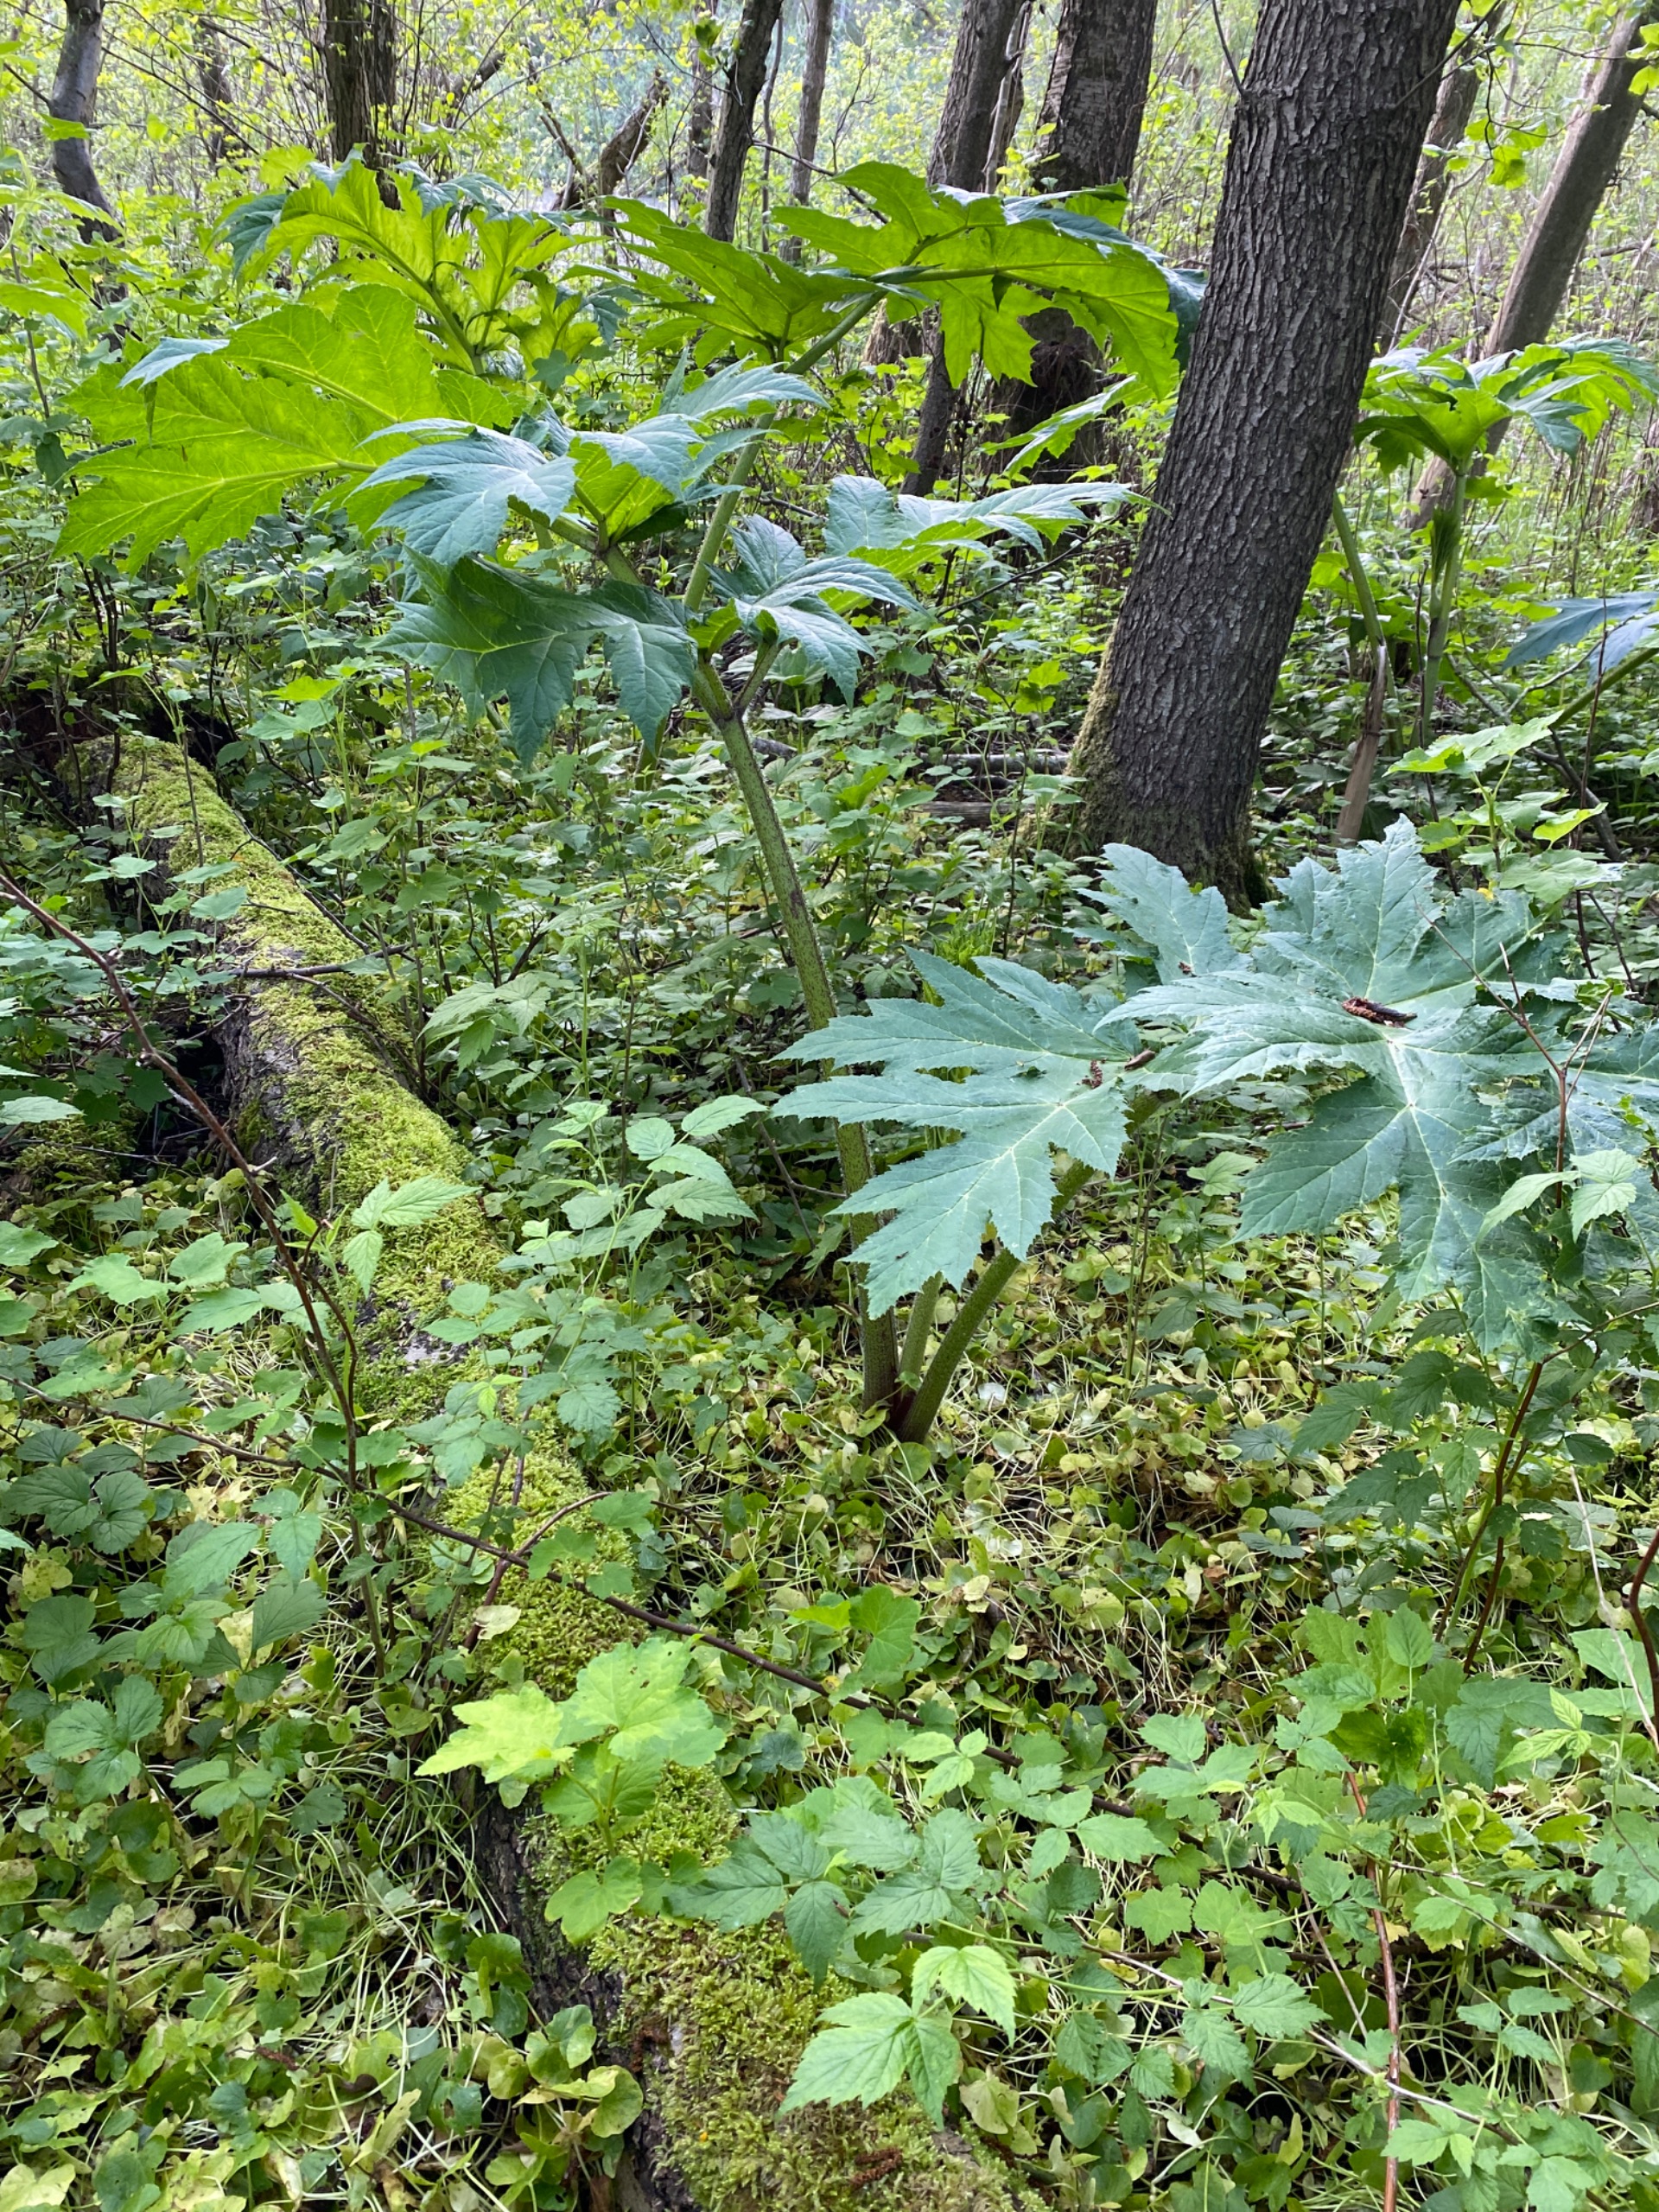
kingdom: Plantae
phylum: Tracheophyta
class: Magnoliopsida
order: Apiales
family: Apiaceae
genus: Heracleum
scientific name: Heracleum mantegazzianum
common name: Kæmpe-bjørneklo
